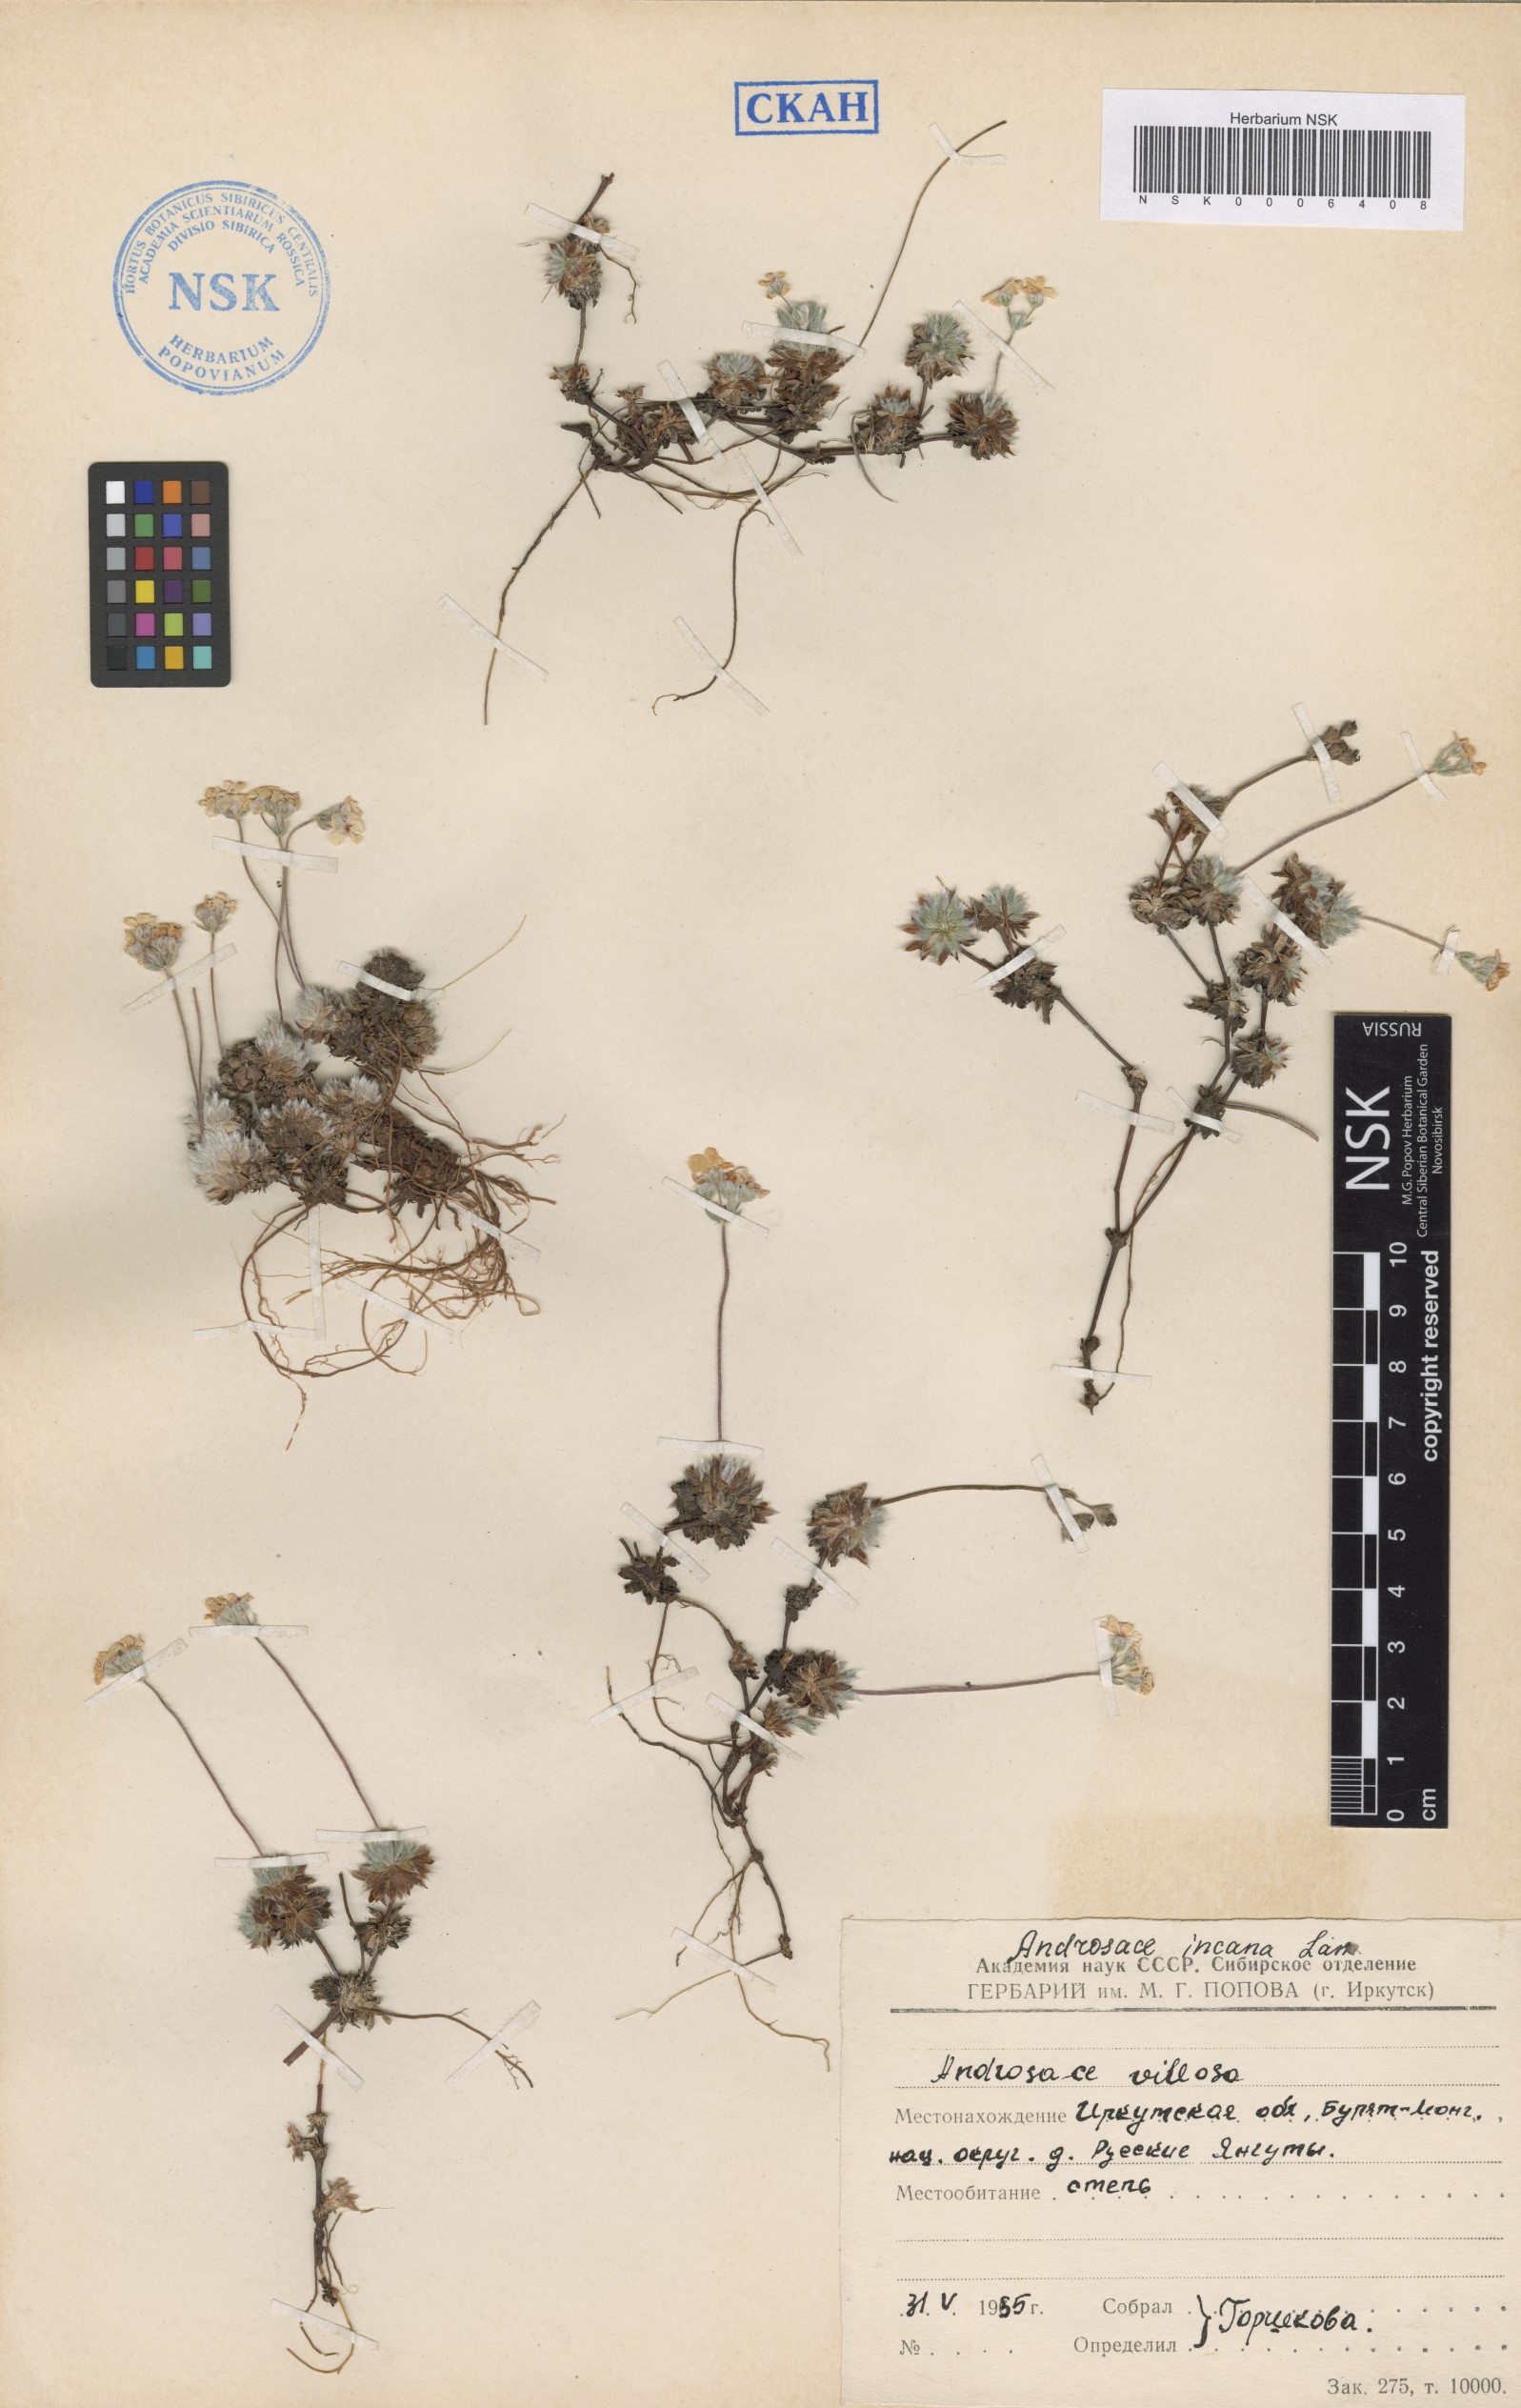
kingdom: Plantae
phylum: Tracheophyta
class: Magnoliopsida
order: Ericales
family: Primulaceae
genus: Androsace
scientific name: Androsace incana
